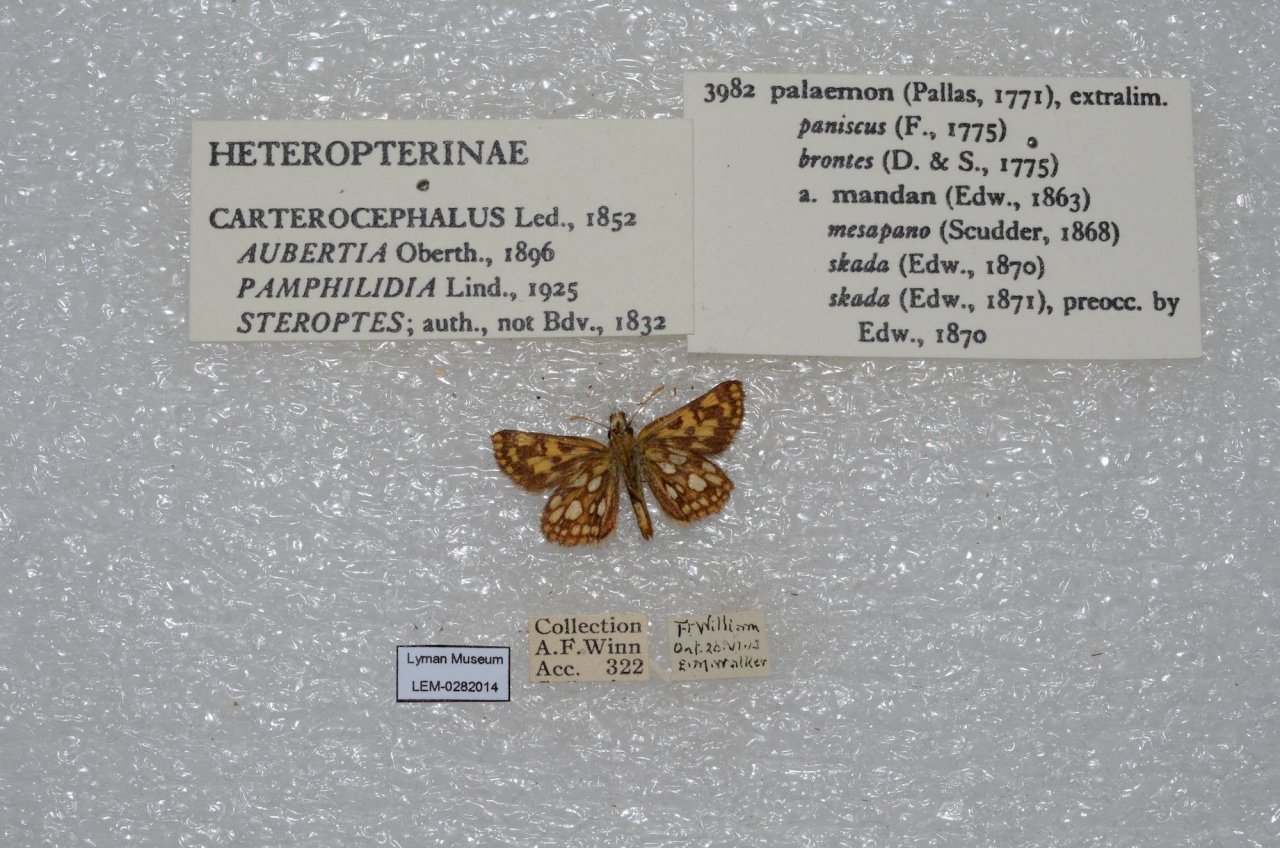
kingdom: Animalia
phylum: Arthropoda
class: Insecta
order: Lepidoptera
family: Hesperiidae
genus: Carterocephalus
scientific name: Carterocephalus palaemon
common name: Chequered Skipper
